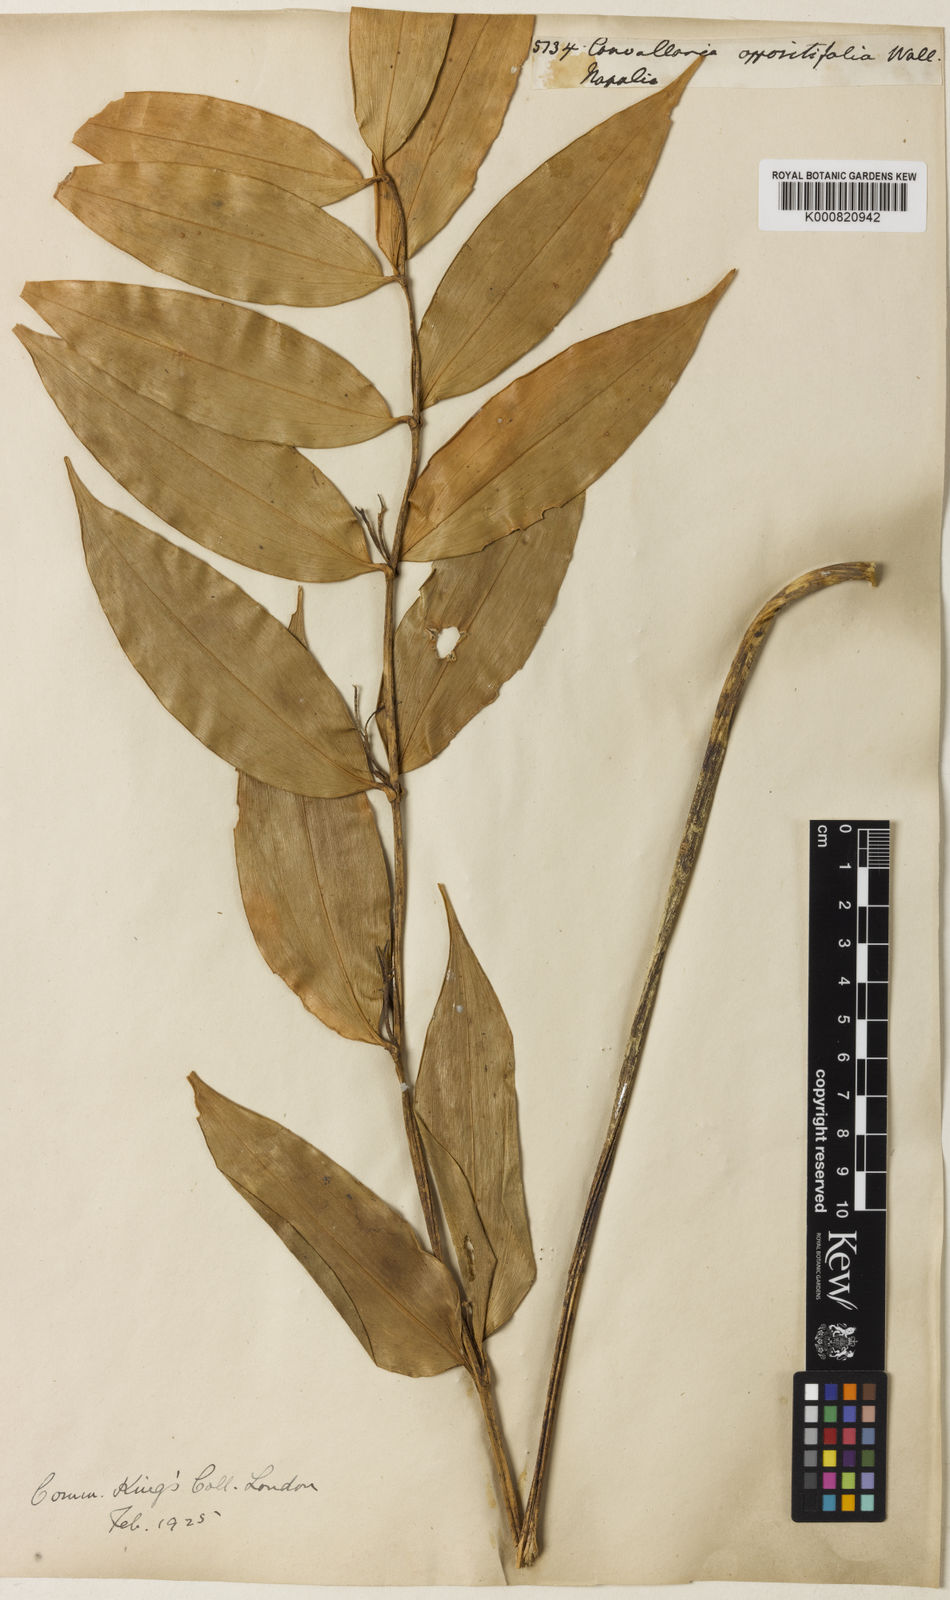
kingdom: Plantae
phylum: Tracheophyta
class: Liliopsida
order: Asparagales
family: Asparagaceae
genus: Polygonatum
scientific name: Polygonatum oppositifolium
